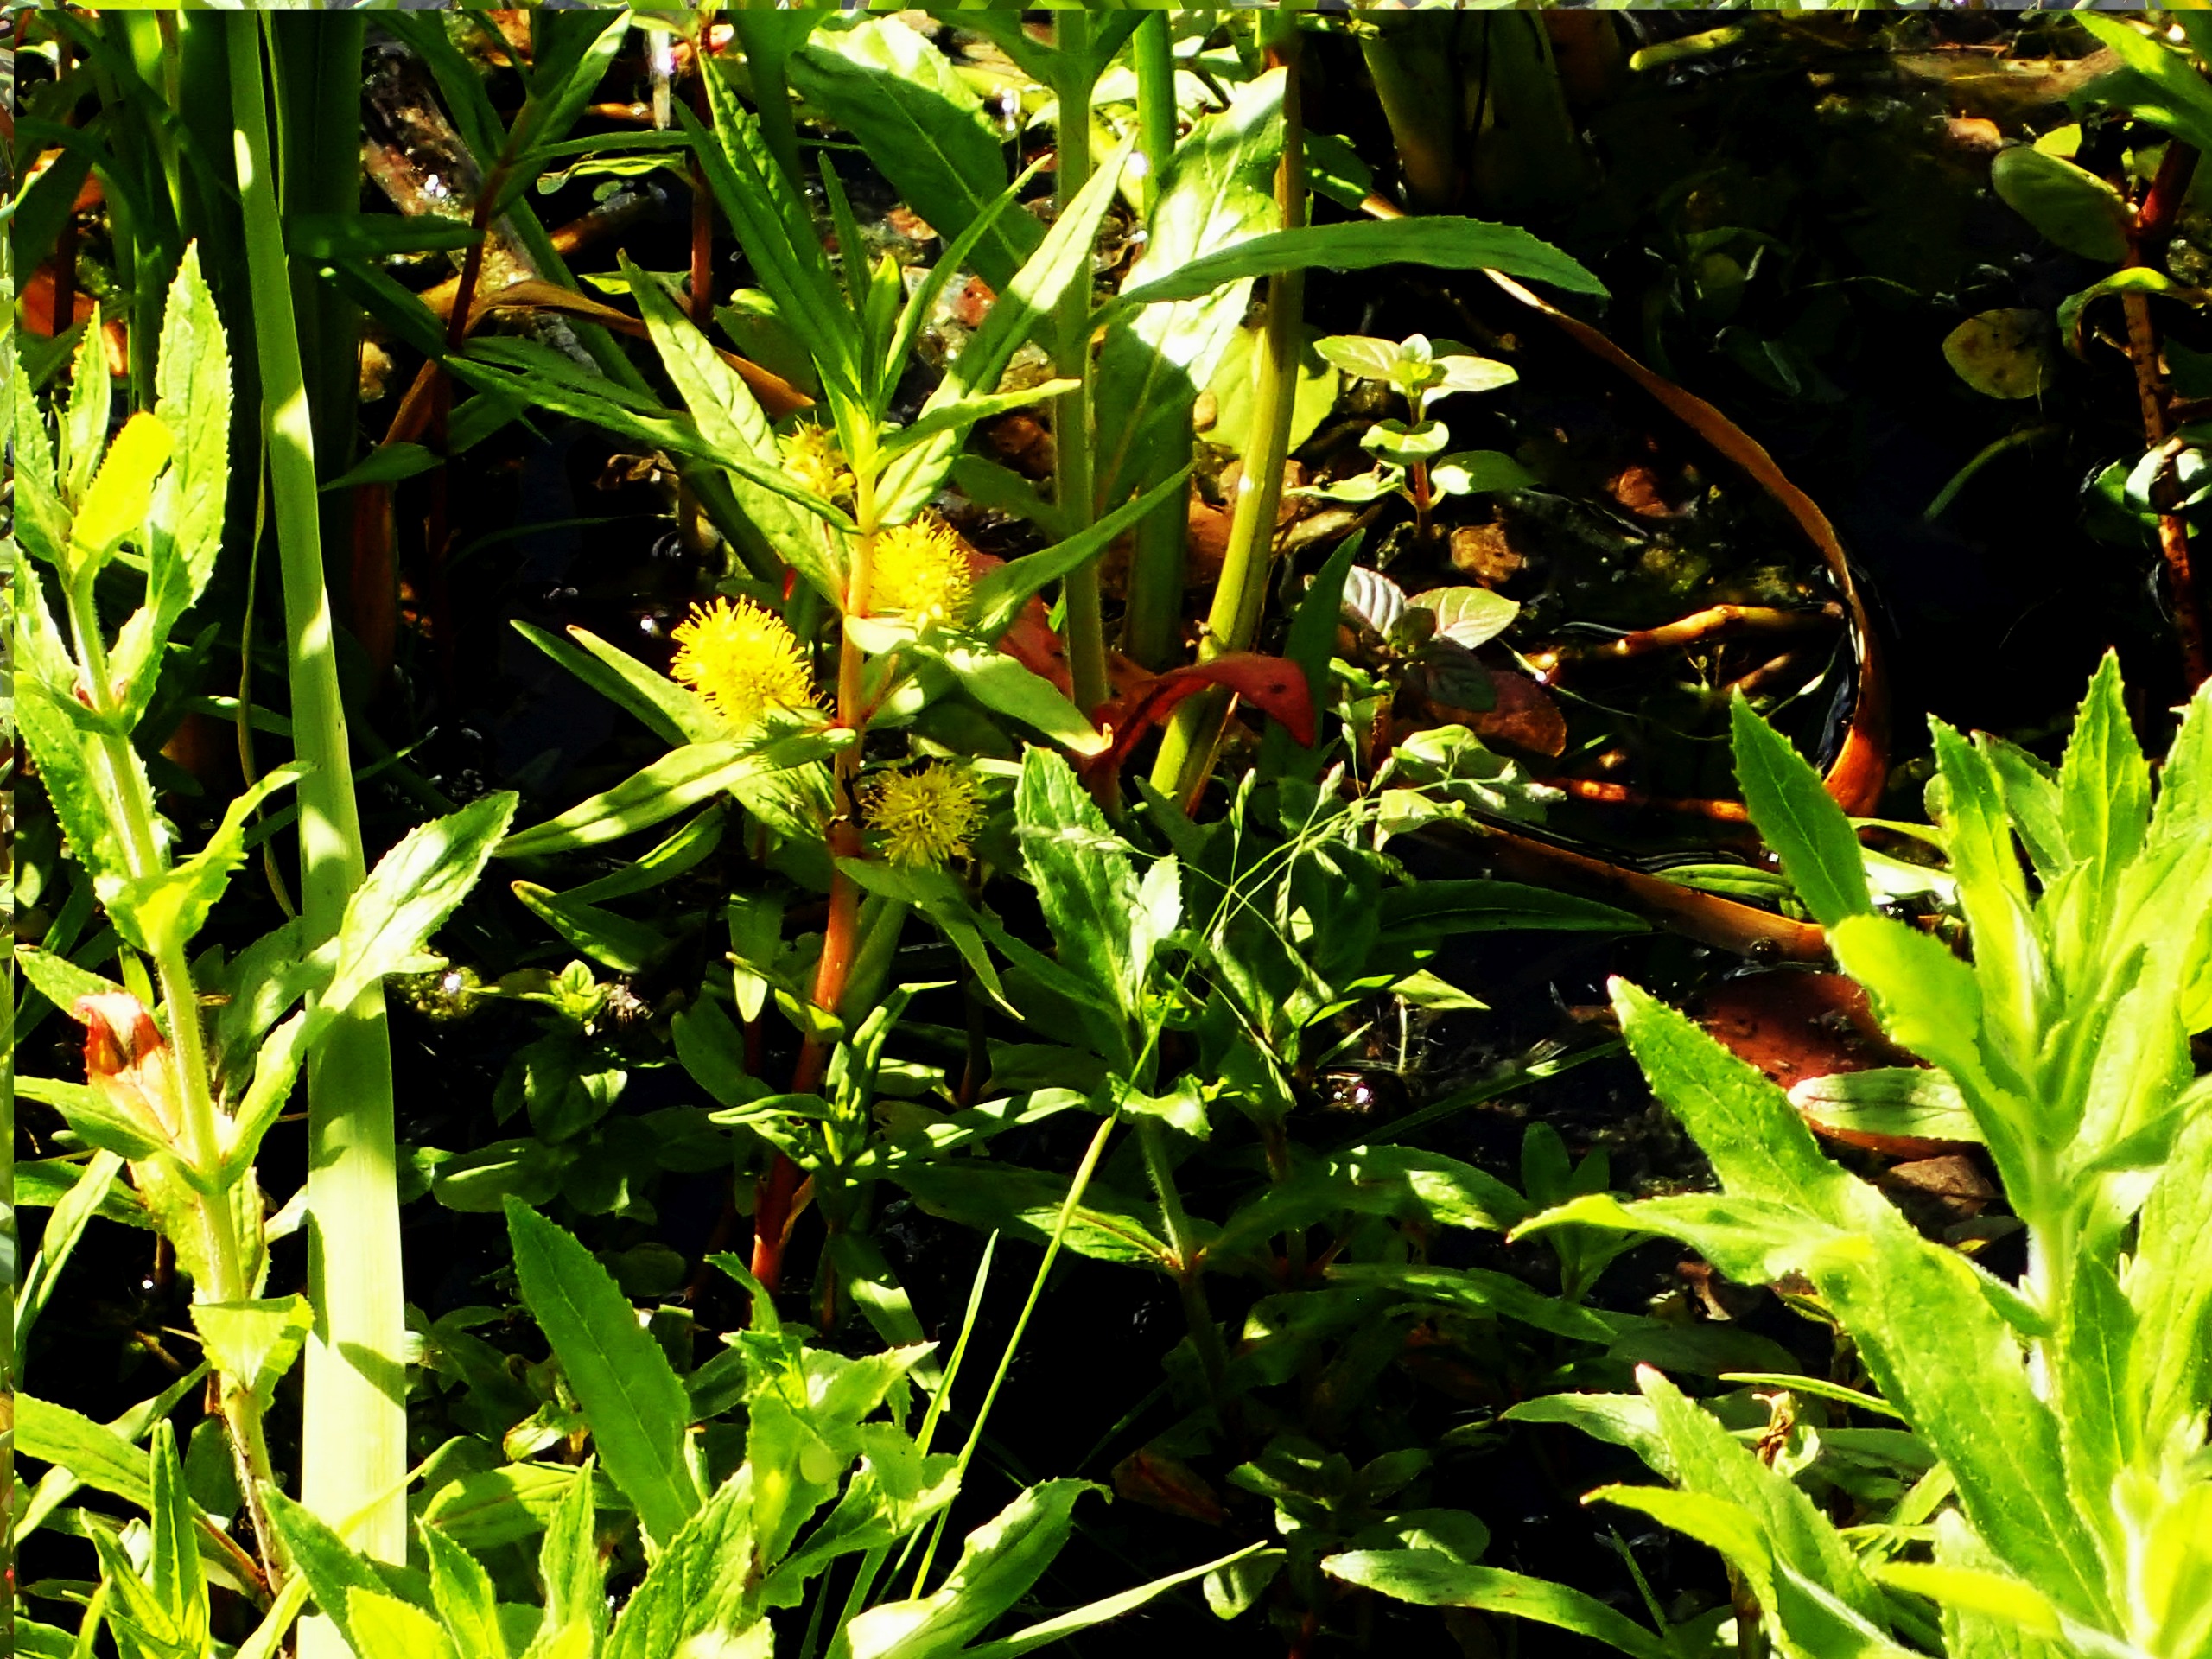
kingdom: Plantae
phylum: Tracheophyta
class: Magnoliopsida
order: Ericales
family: Primulaceae
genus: Lysimachia
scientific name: Lysimachia thyrsiflora
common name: Dusk-fredløs
